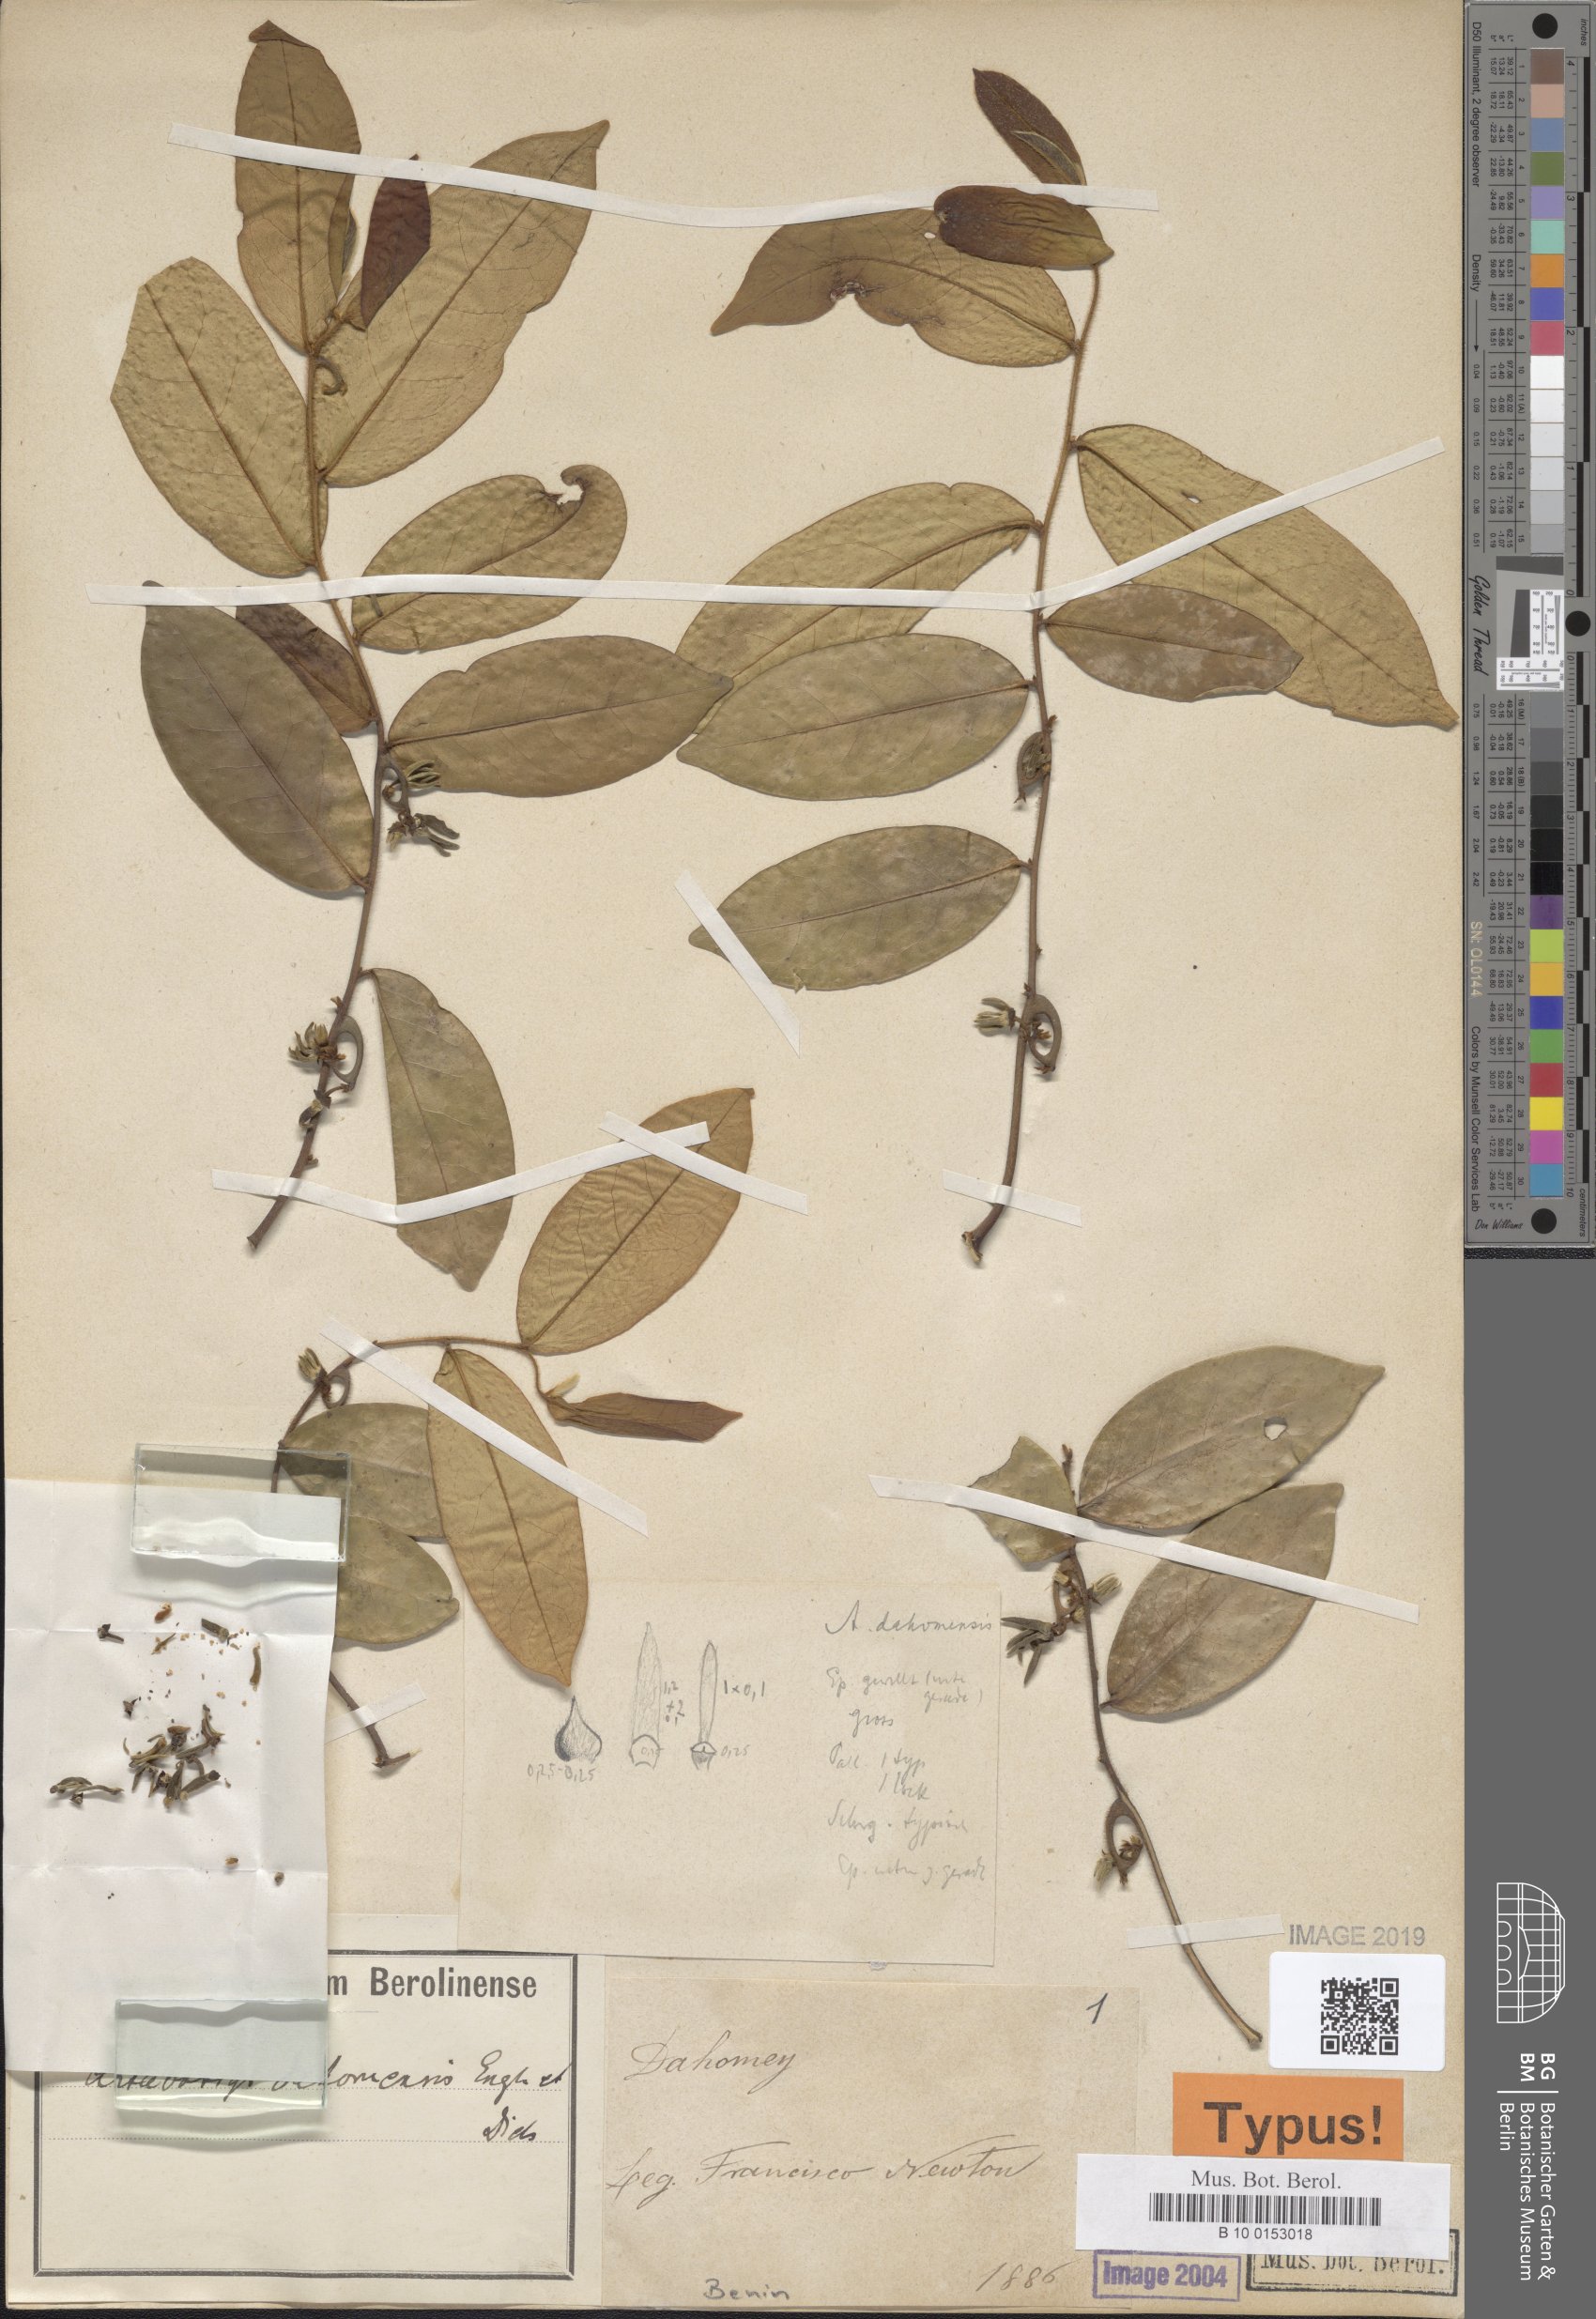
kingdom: Plantae
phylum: Tracheophyta
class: Magnoliopsida
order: Magnoliales
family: Annonaceae
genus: Artabotrys
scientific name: Artabotrys dahomensis
